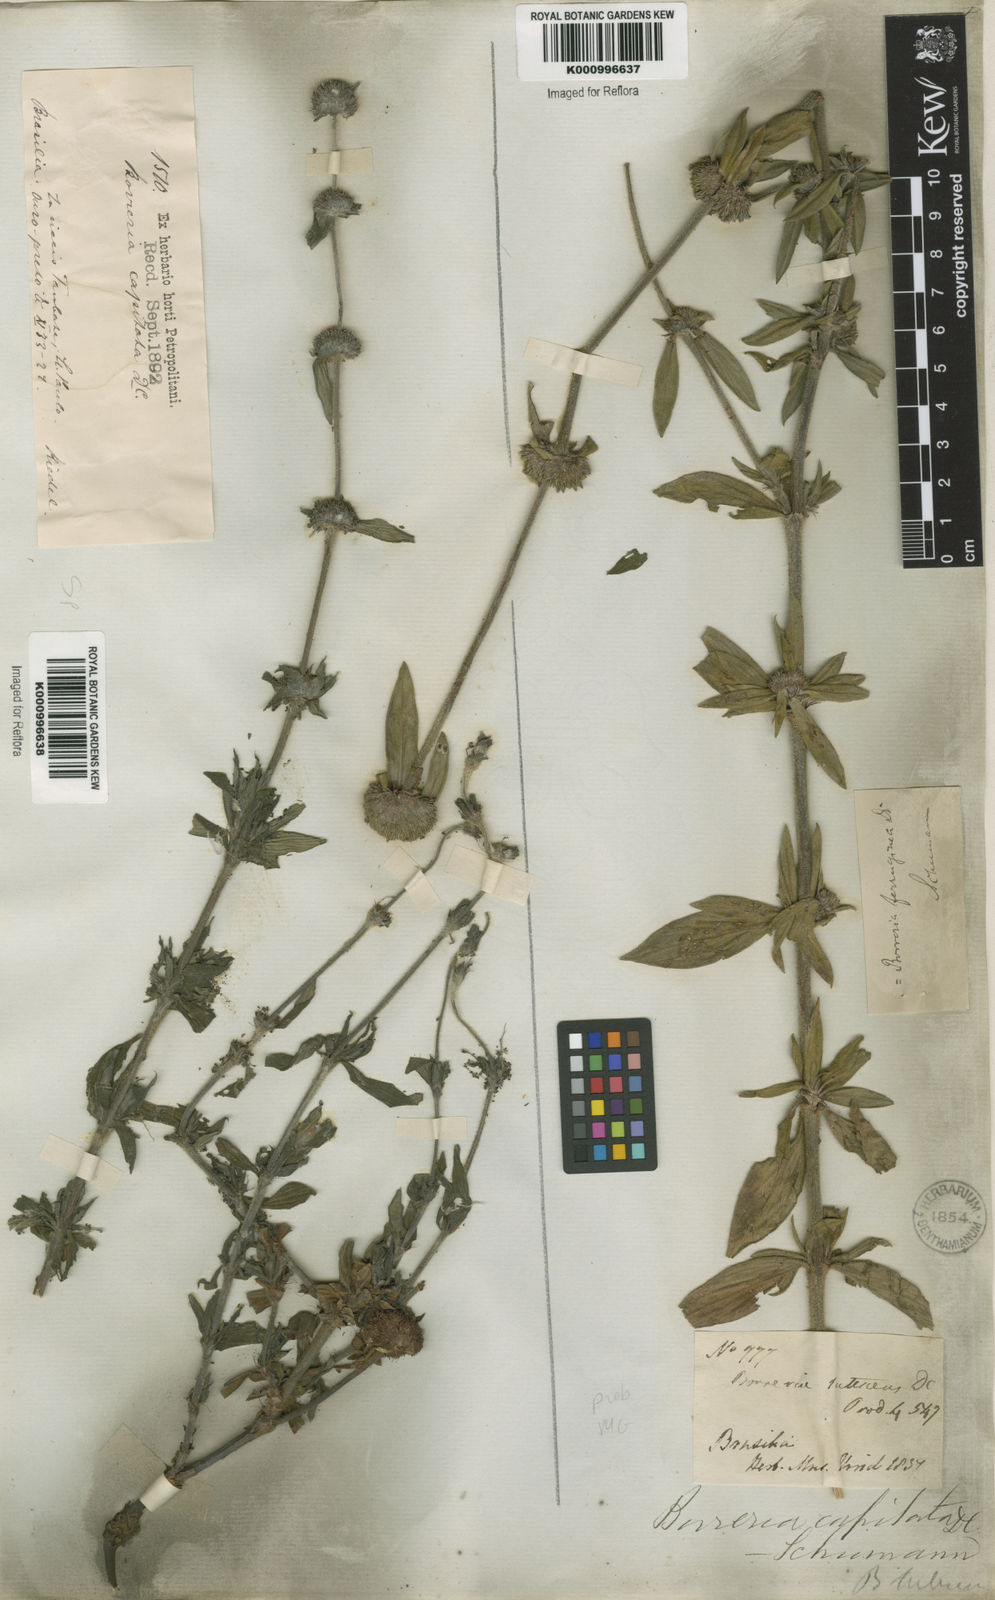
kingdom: Plantae
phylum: Tracheophyta
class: Magnoliopsida
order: Gentianales
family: Rubiaceae
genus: Spermacoce
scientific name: Spermacoce
